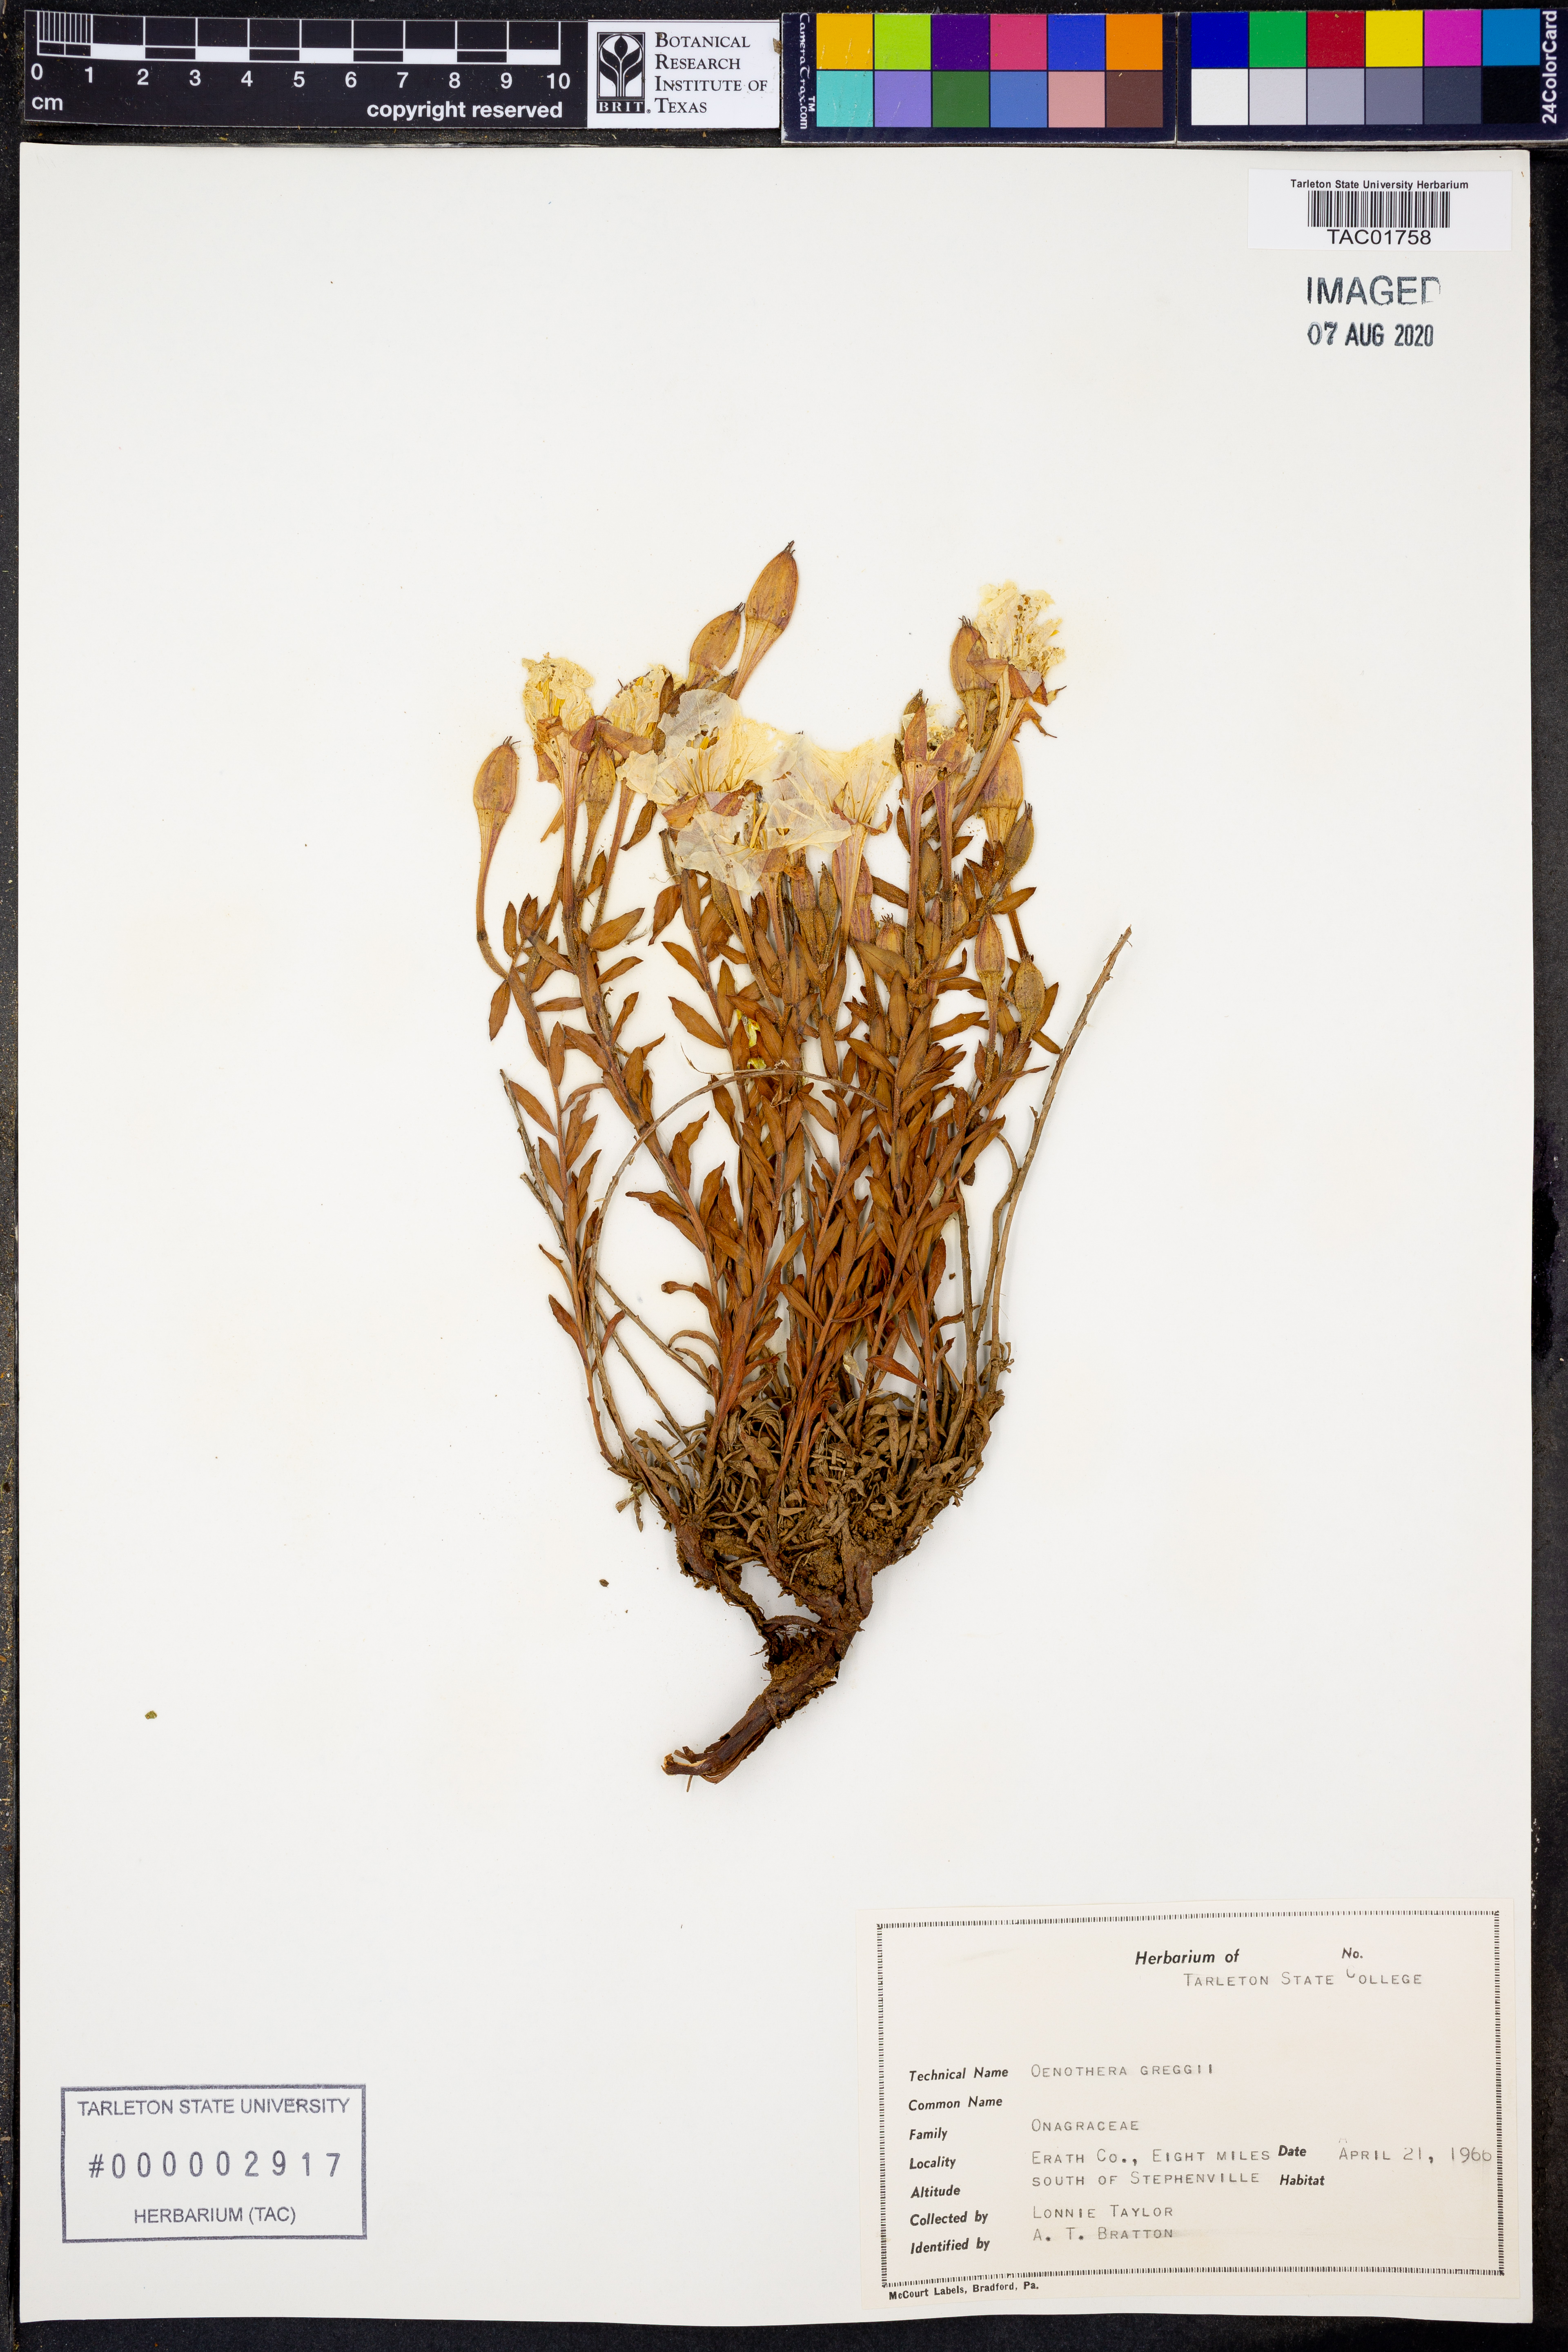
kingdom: Plantae
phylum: Tracheophyta
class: Magnoliopsida
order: Myrtales
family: Onagraceae
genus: Oenothera
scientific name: Oenothera hartwegii
